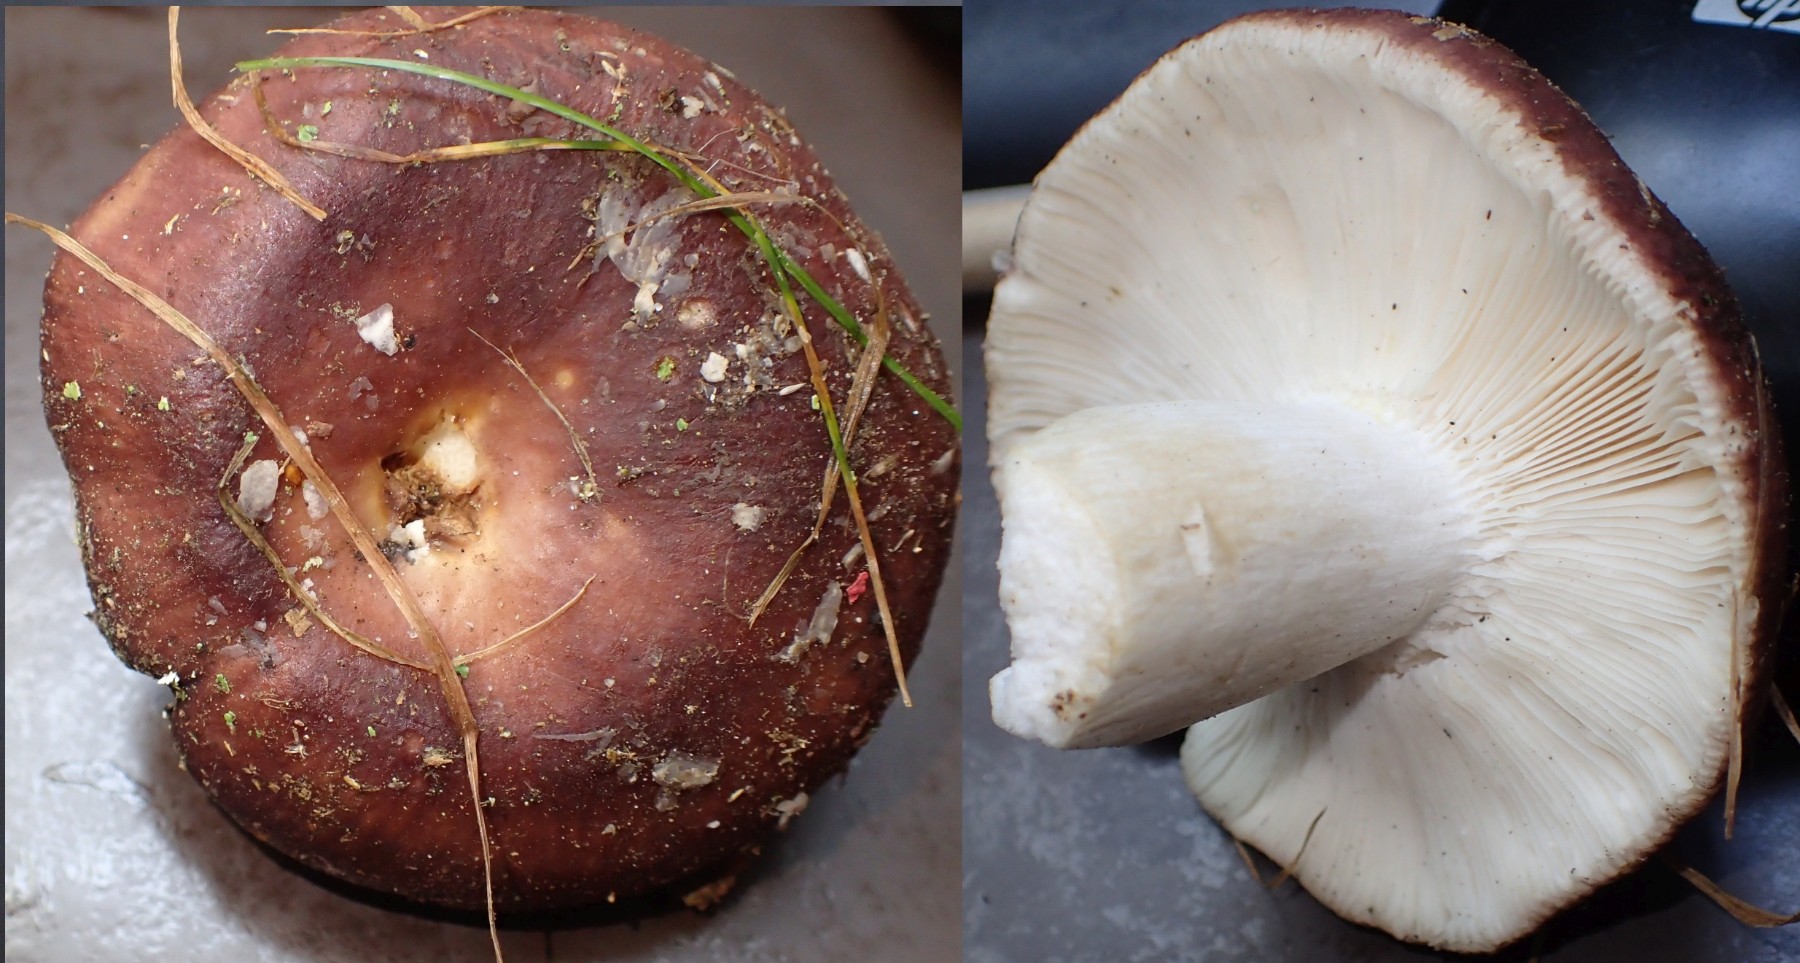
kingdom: Fungi
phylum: Basidiomycota
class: Agaricomycetes
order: Russulales
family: Russulaceae
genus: Russula
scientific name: Russula vesca
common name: spiselig skørhat
